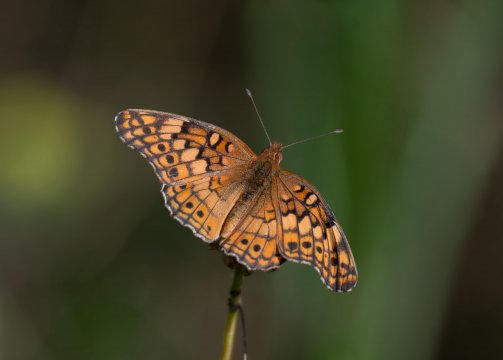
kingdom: Animalia
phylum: Arthropoda
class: Insecta
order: Lepidoptera
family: Nymphalidae
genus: Euptoieta
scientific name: Euptoieta claudia
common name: Variegated Fritillary
